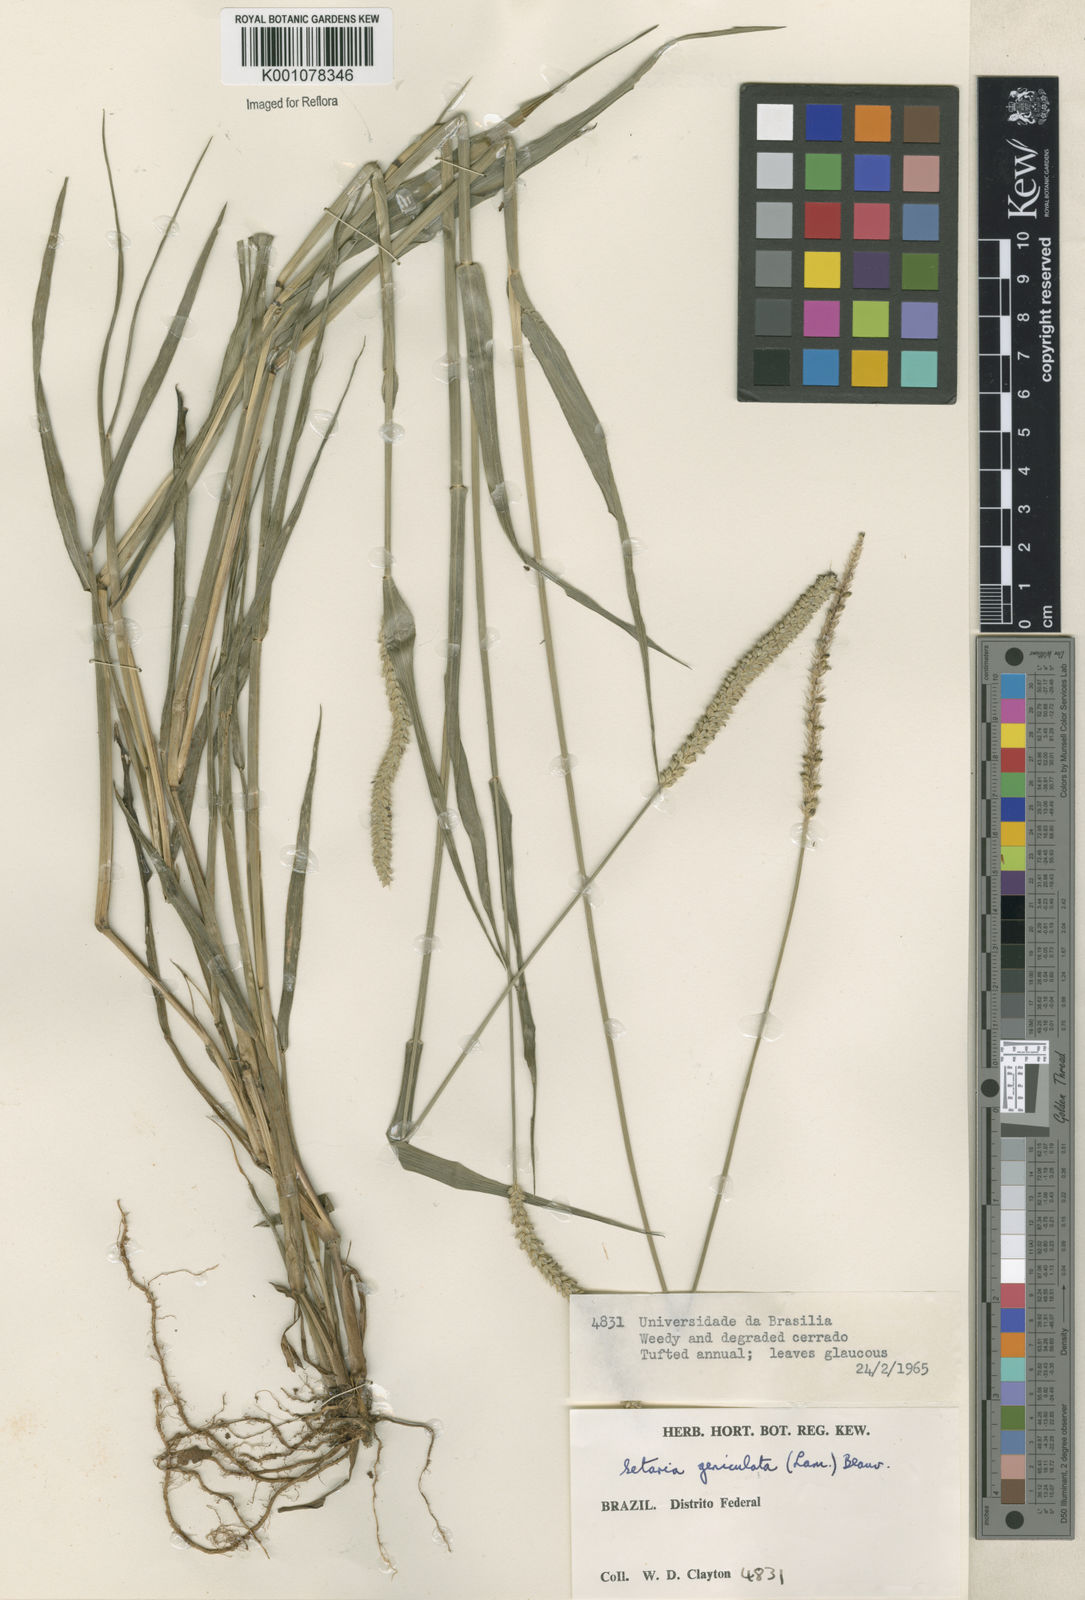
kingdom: Plantae
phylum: Tracheophyta
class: Liliopsida
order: Poales
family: Poaceae
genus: Setaria
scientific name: Setaria parviflora
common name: Knotroot bristle-grass
